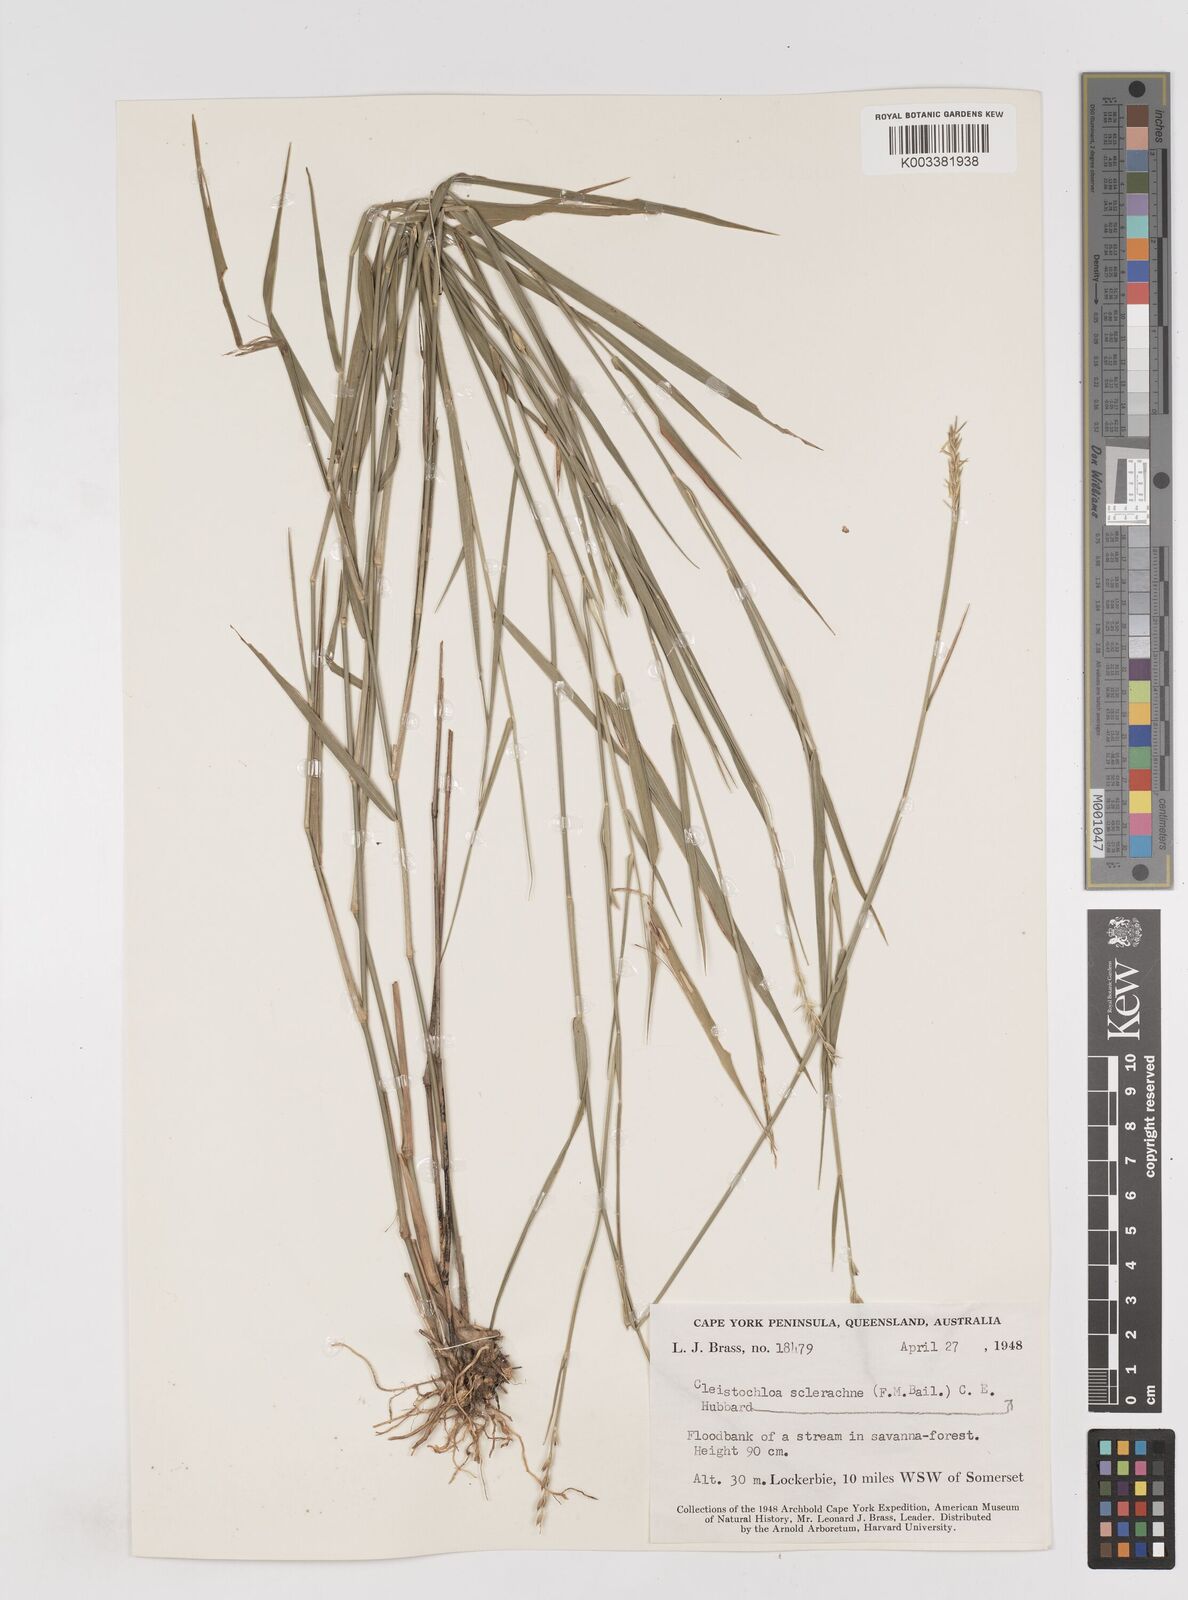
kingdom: Plantae
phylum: Tracheophyta
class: Liliopsida
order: Poales
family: Poaceae
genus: Cleistochloa
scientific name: Cleistochloa sclerachne
